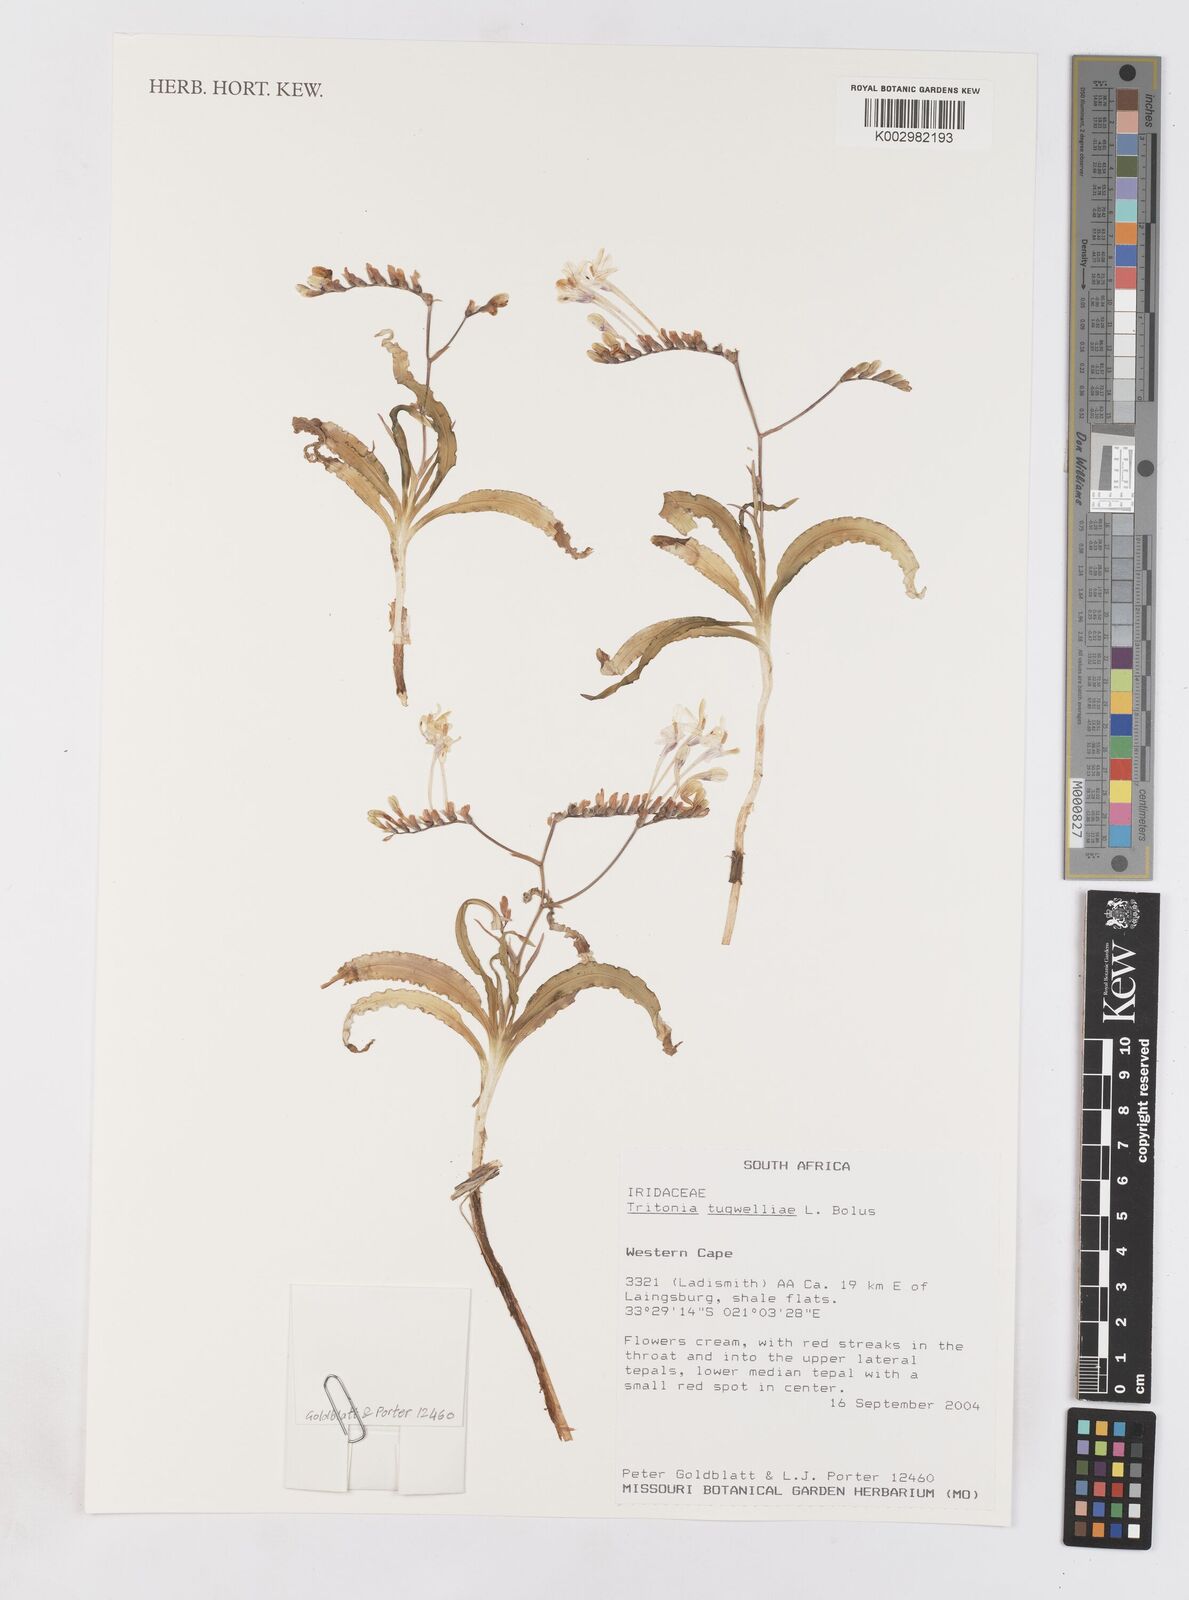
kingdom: Plantae
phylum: Tracheophyta
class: Liliopsida
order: Asparagales
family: Iridaceae
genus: Tritonia
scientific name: Tritonia tugwelliae
